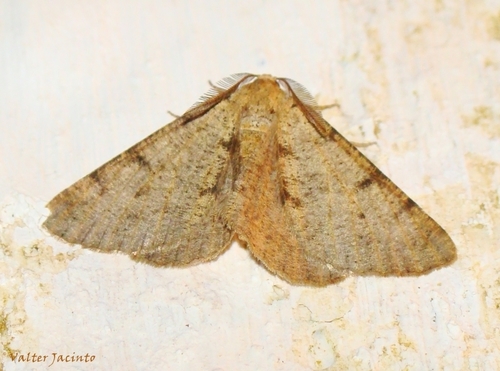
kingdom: Animalia
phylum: Arthropoda
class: Insecta
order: Lepidoptera
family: Geometridae
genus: Isturgia
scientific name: Isturgia miniosaria
